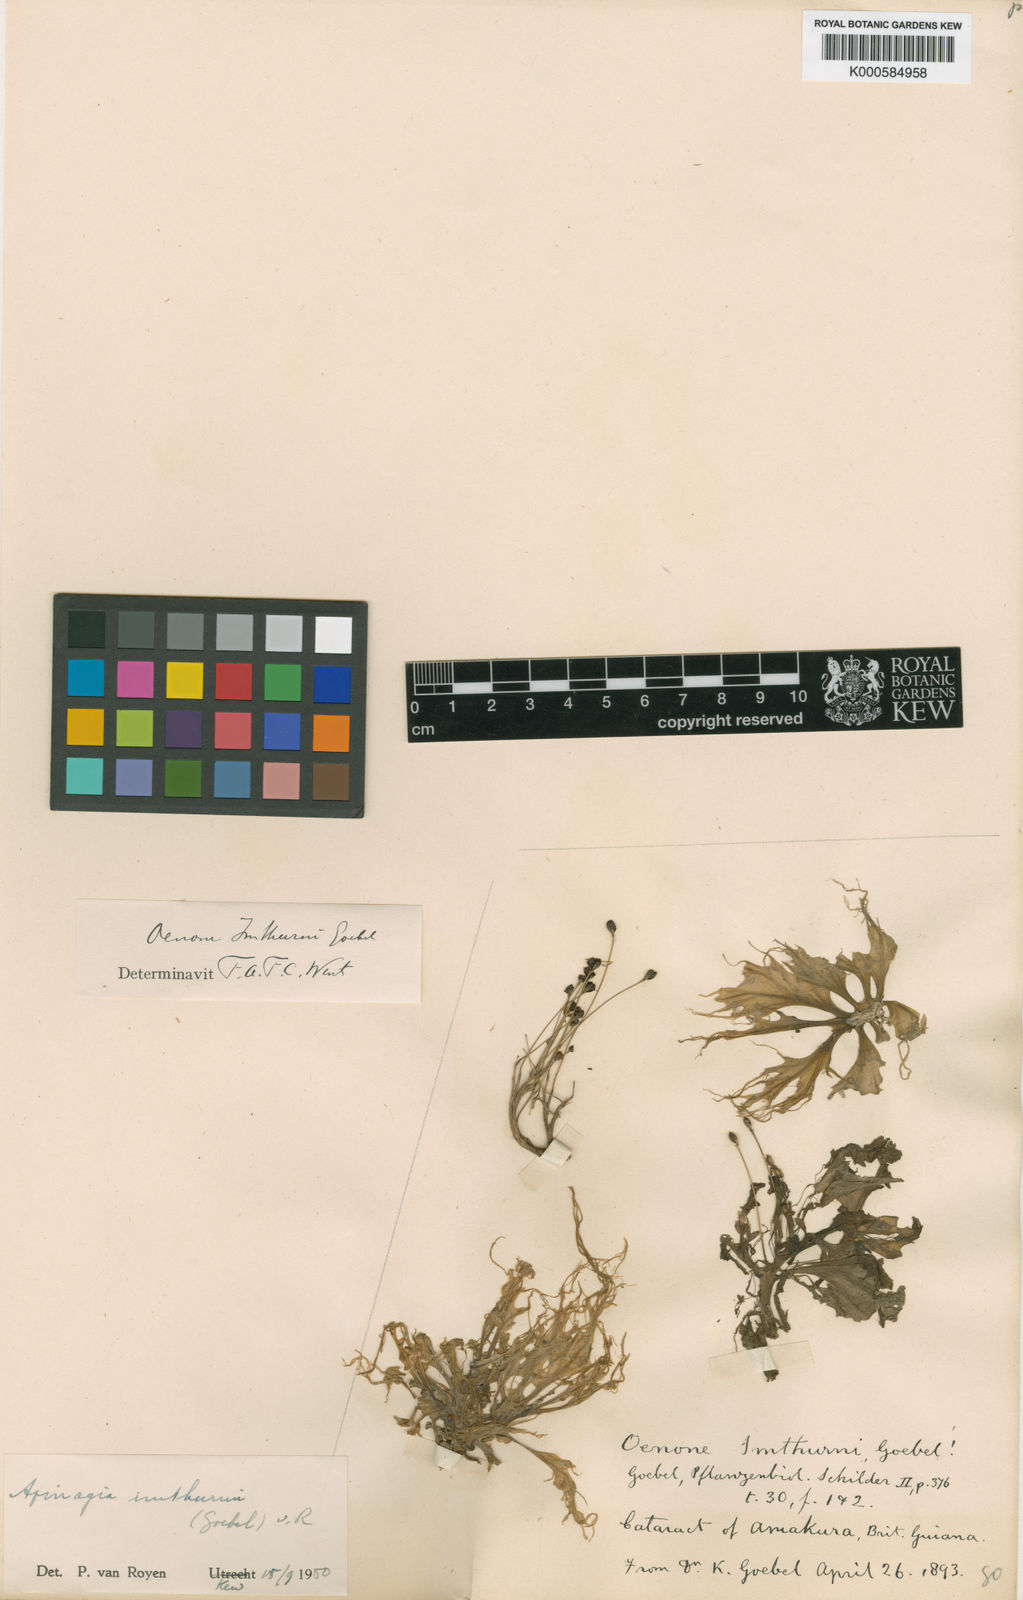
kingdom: Plantae
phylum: Tracheophyta
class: Magnoliopsida
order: Malpighiales
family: Podostemaceae
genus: Apinagia
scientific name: Apinagia guyanensis
